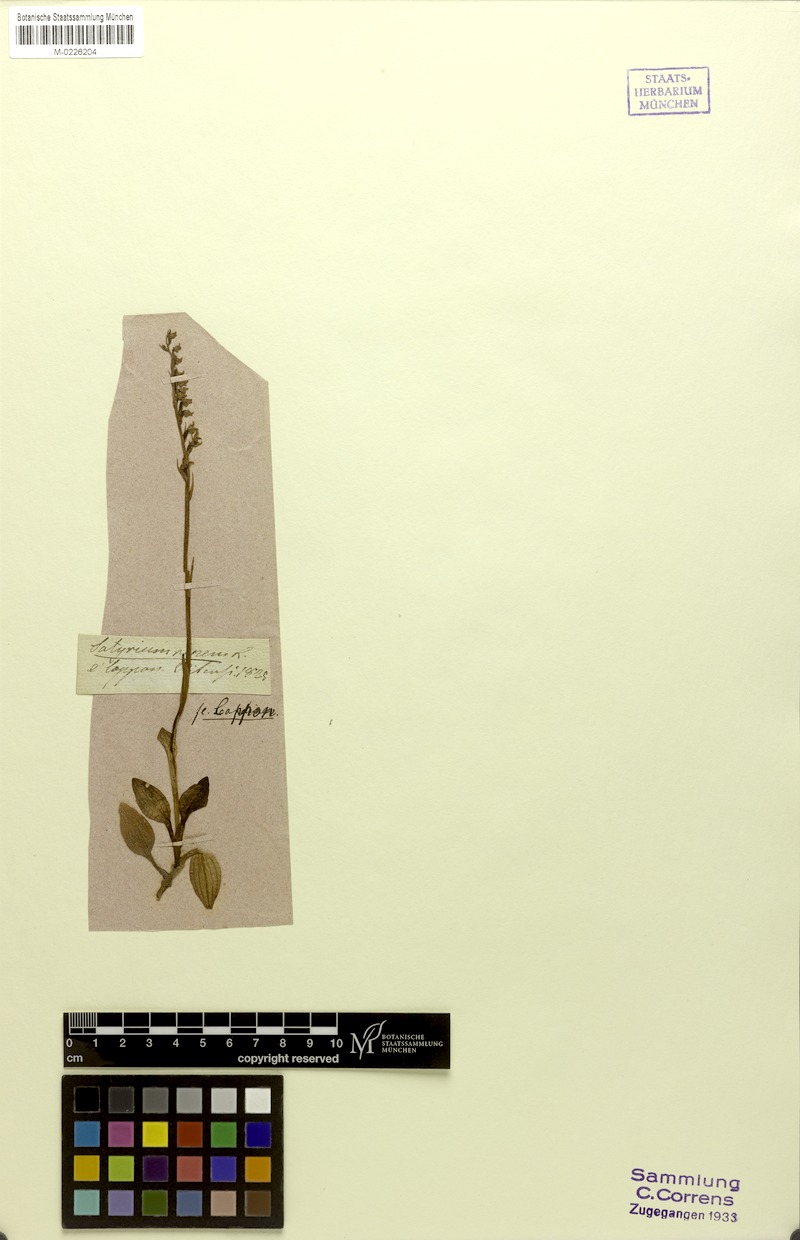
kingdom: Plantae
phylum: Tracheophyta
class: Liliopsida
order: Asparagales
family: Orchidaceae
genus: Goodyera
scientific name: Goodyera repens
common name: Creeping lady's-tresses
